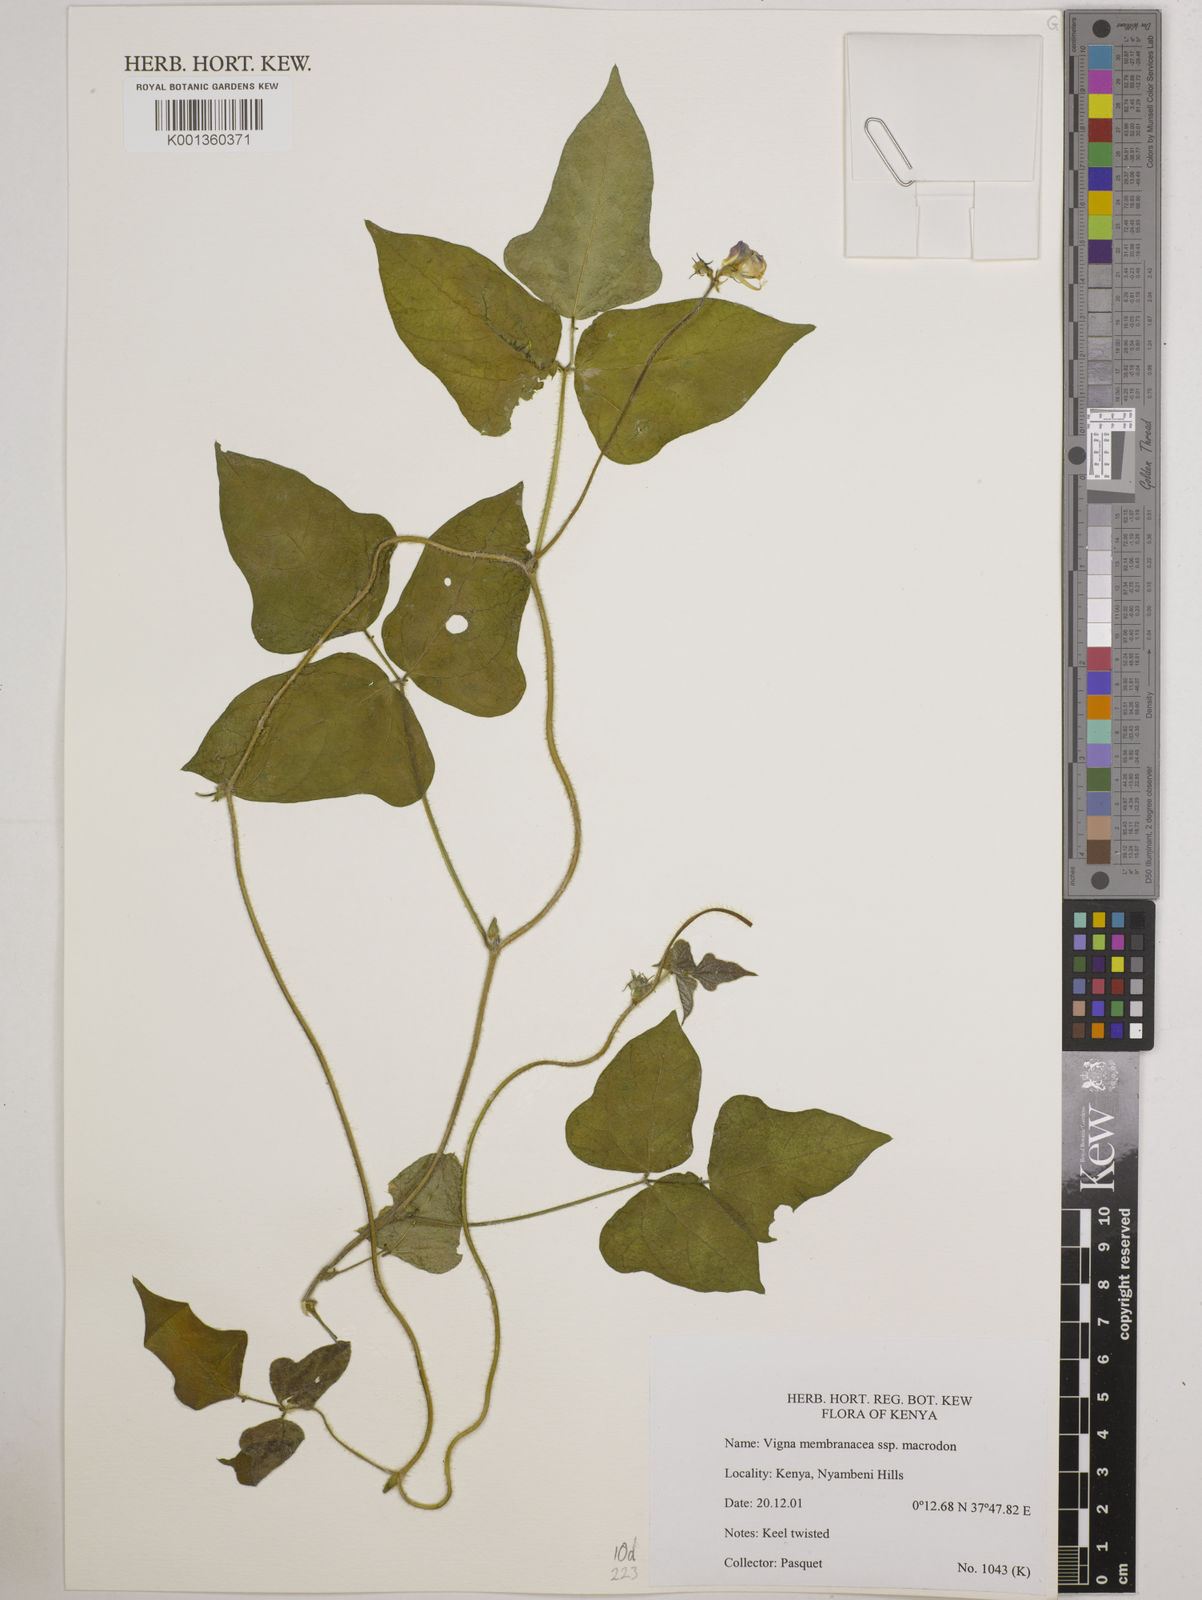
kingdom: Plantae
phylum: Tracheophyta
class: Magnoliopsida
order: Fabales
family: Fabaceae
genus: Vigna
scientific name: Vigna
